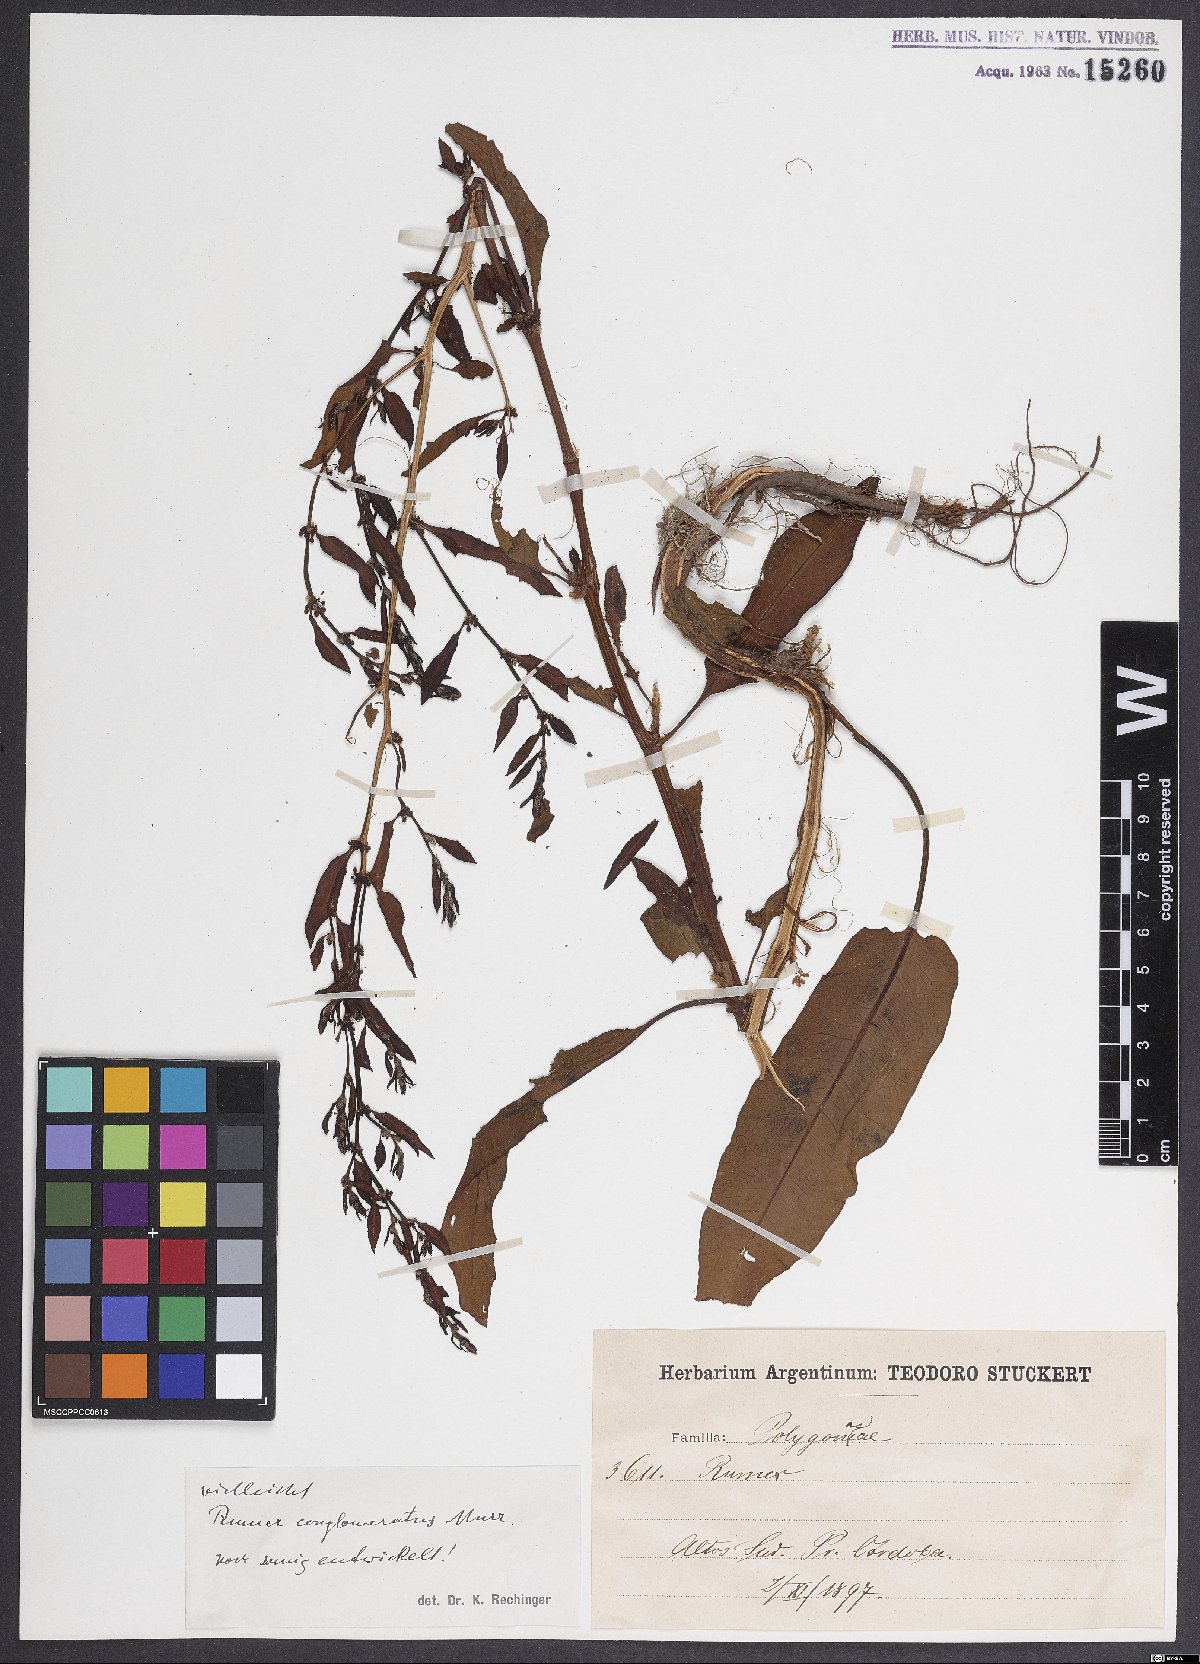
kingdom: Plantae
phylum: Tracheophyta
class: Magnoliopsida
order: Caryophyllales
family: Polygonaceae
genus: Rumex
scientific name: Rumex conglomeratus
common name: Clustered dock
